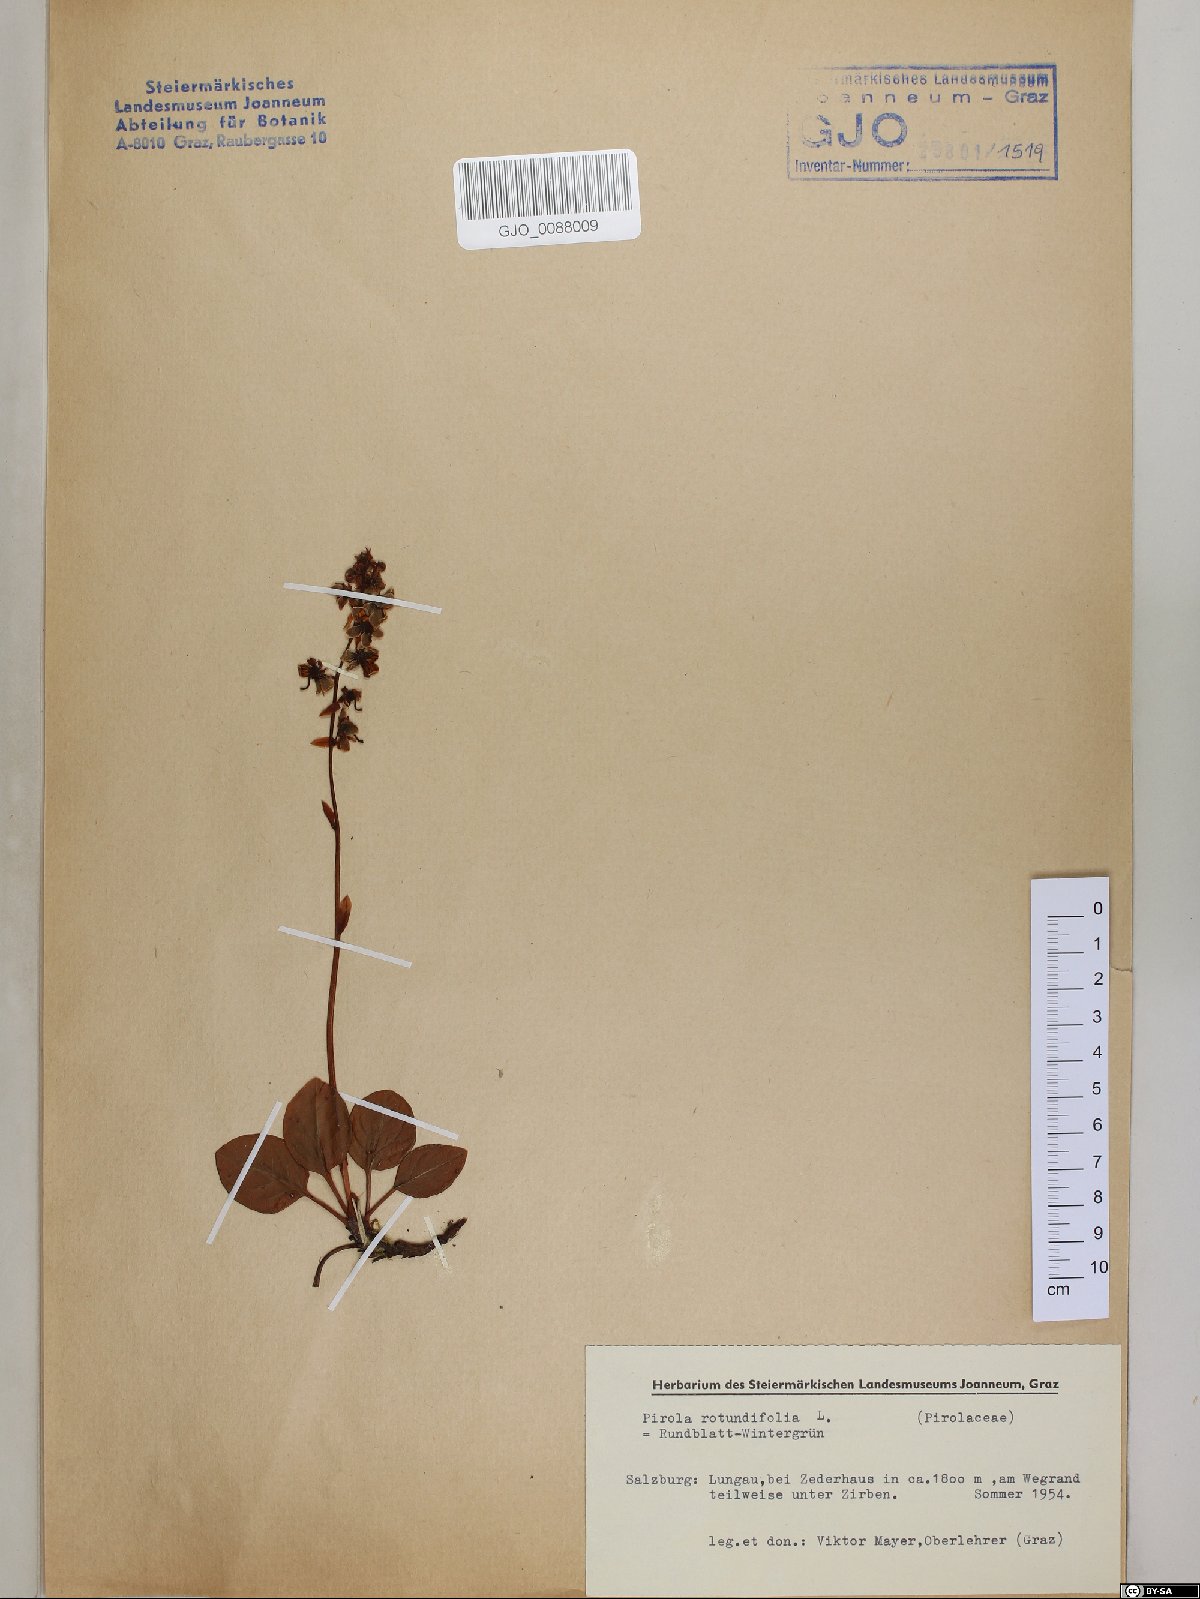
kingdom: Plantae
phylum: Tracheophyta
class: Magnoliopsida
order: Ericales
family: Ericaceae
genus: Pyrola
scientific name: Pyrola rotundifolia
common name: Round-leaved wintergreen
